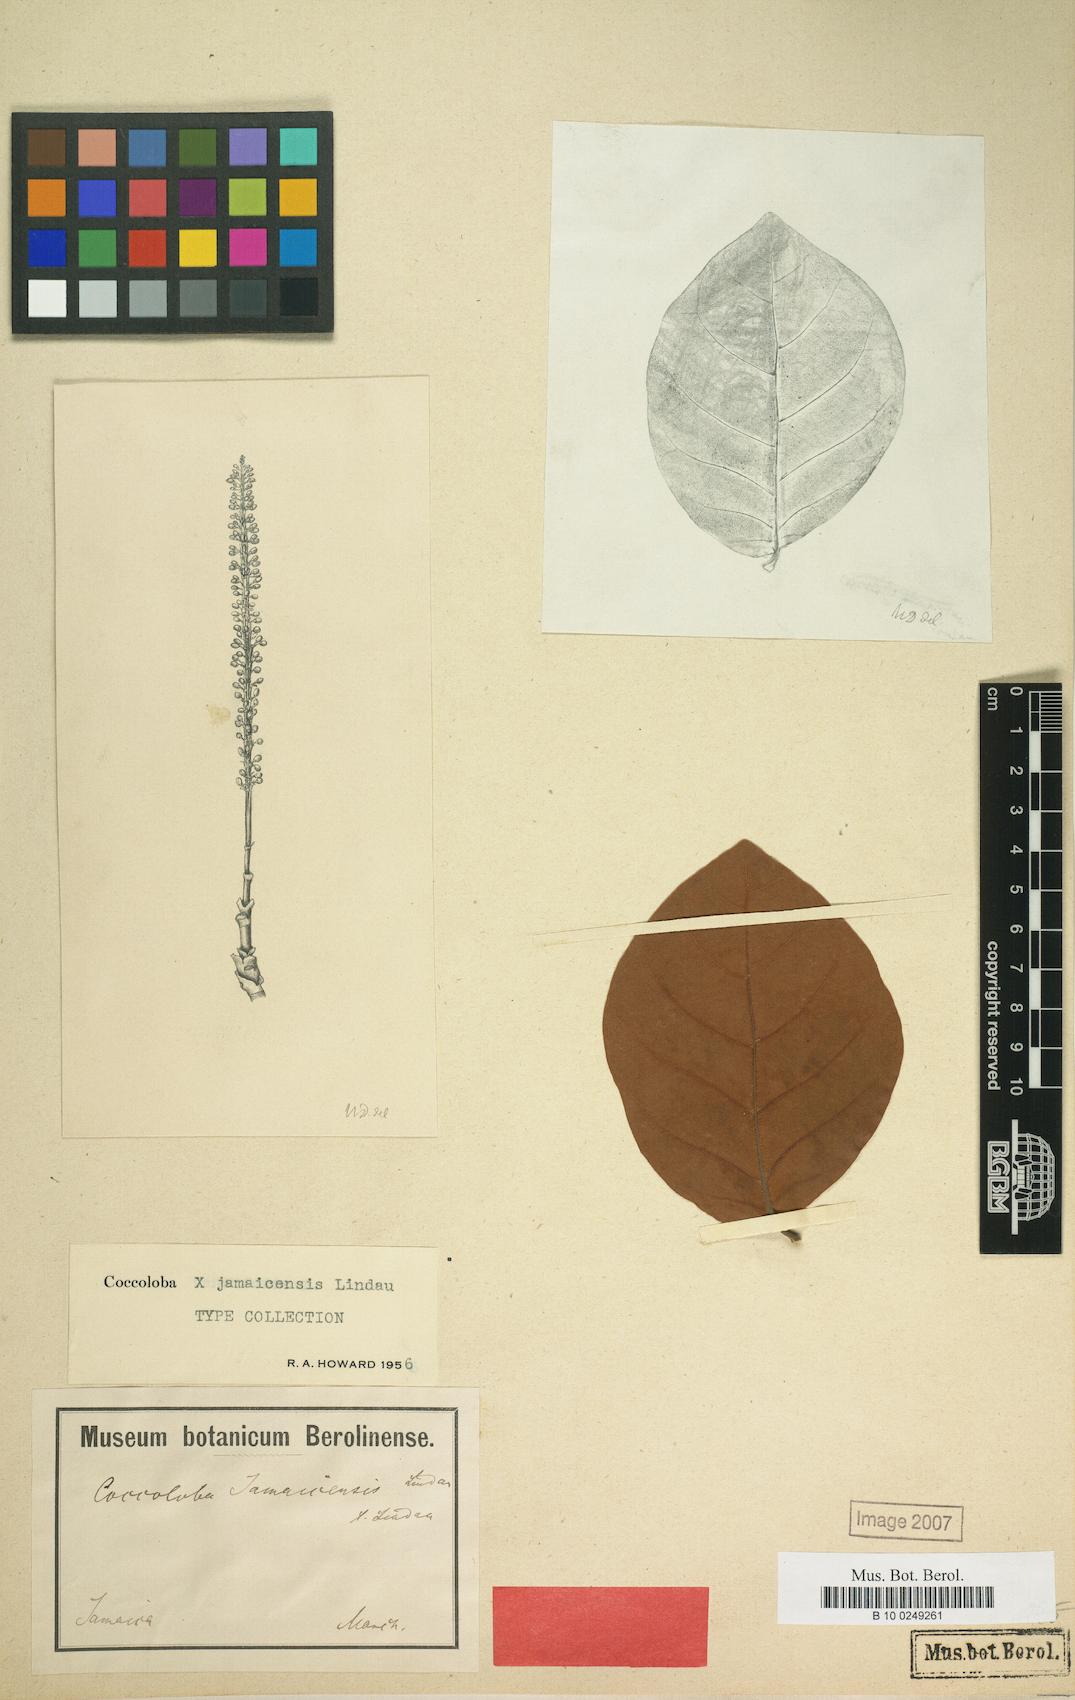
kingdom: Plantae
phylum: Tracheophyta
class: Magnoliopsida
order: Caryophyllales
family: Polygonaceae
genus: Coccoloba
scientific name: Coccoloba jamaicensis
